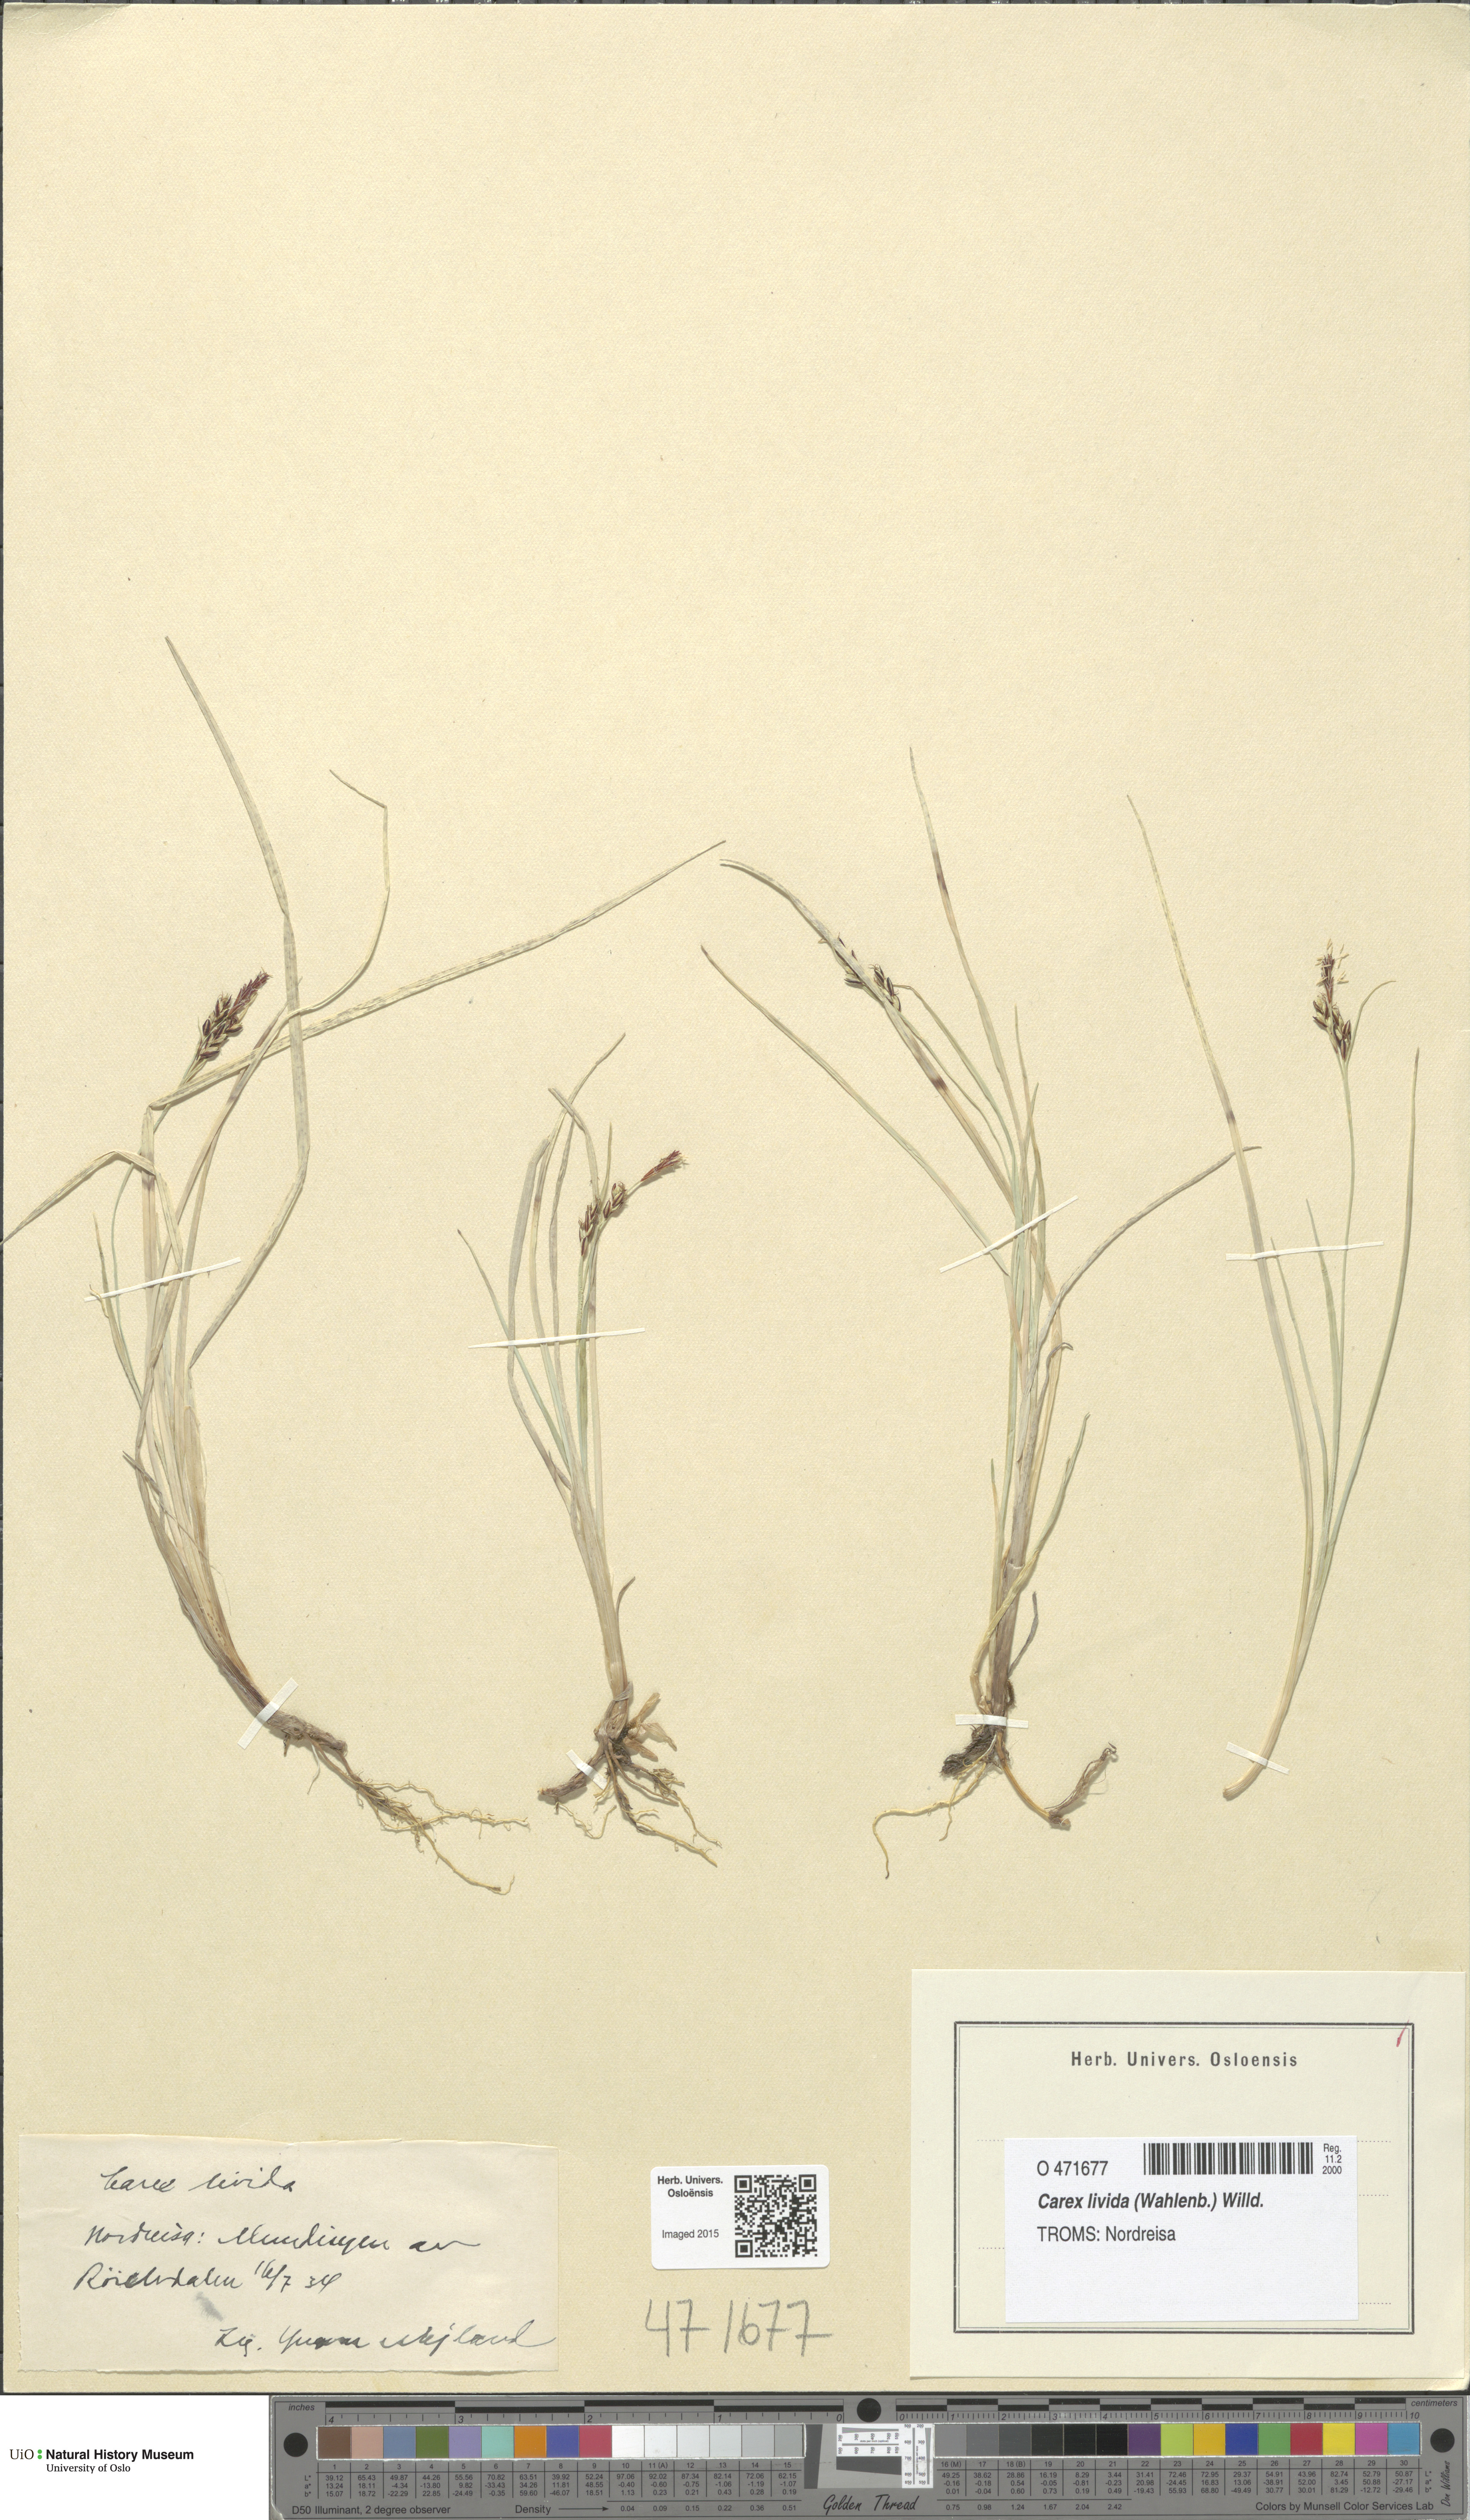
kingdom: Plantae
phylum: Tracheophyta
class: Liliopsida
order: Poales
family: Cyperaceae
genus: Carex
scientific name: Carex livida
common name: Livid sedge
